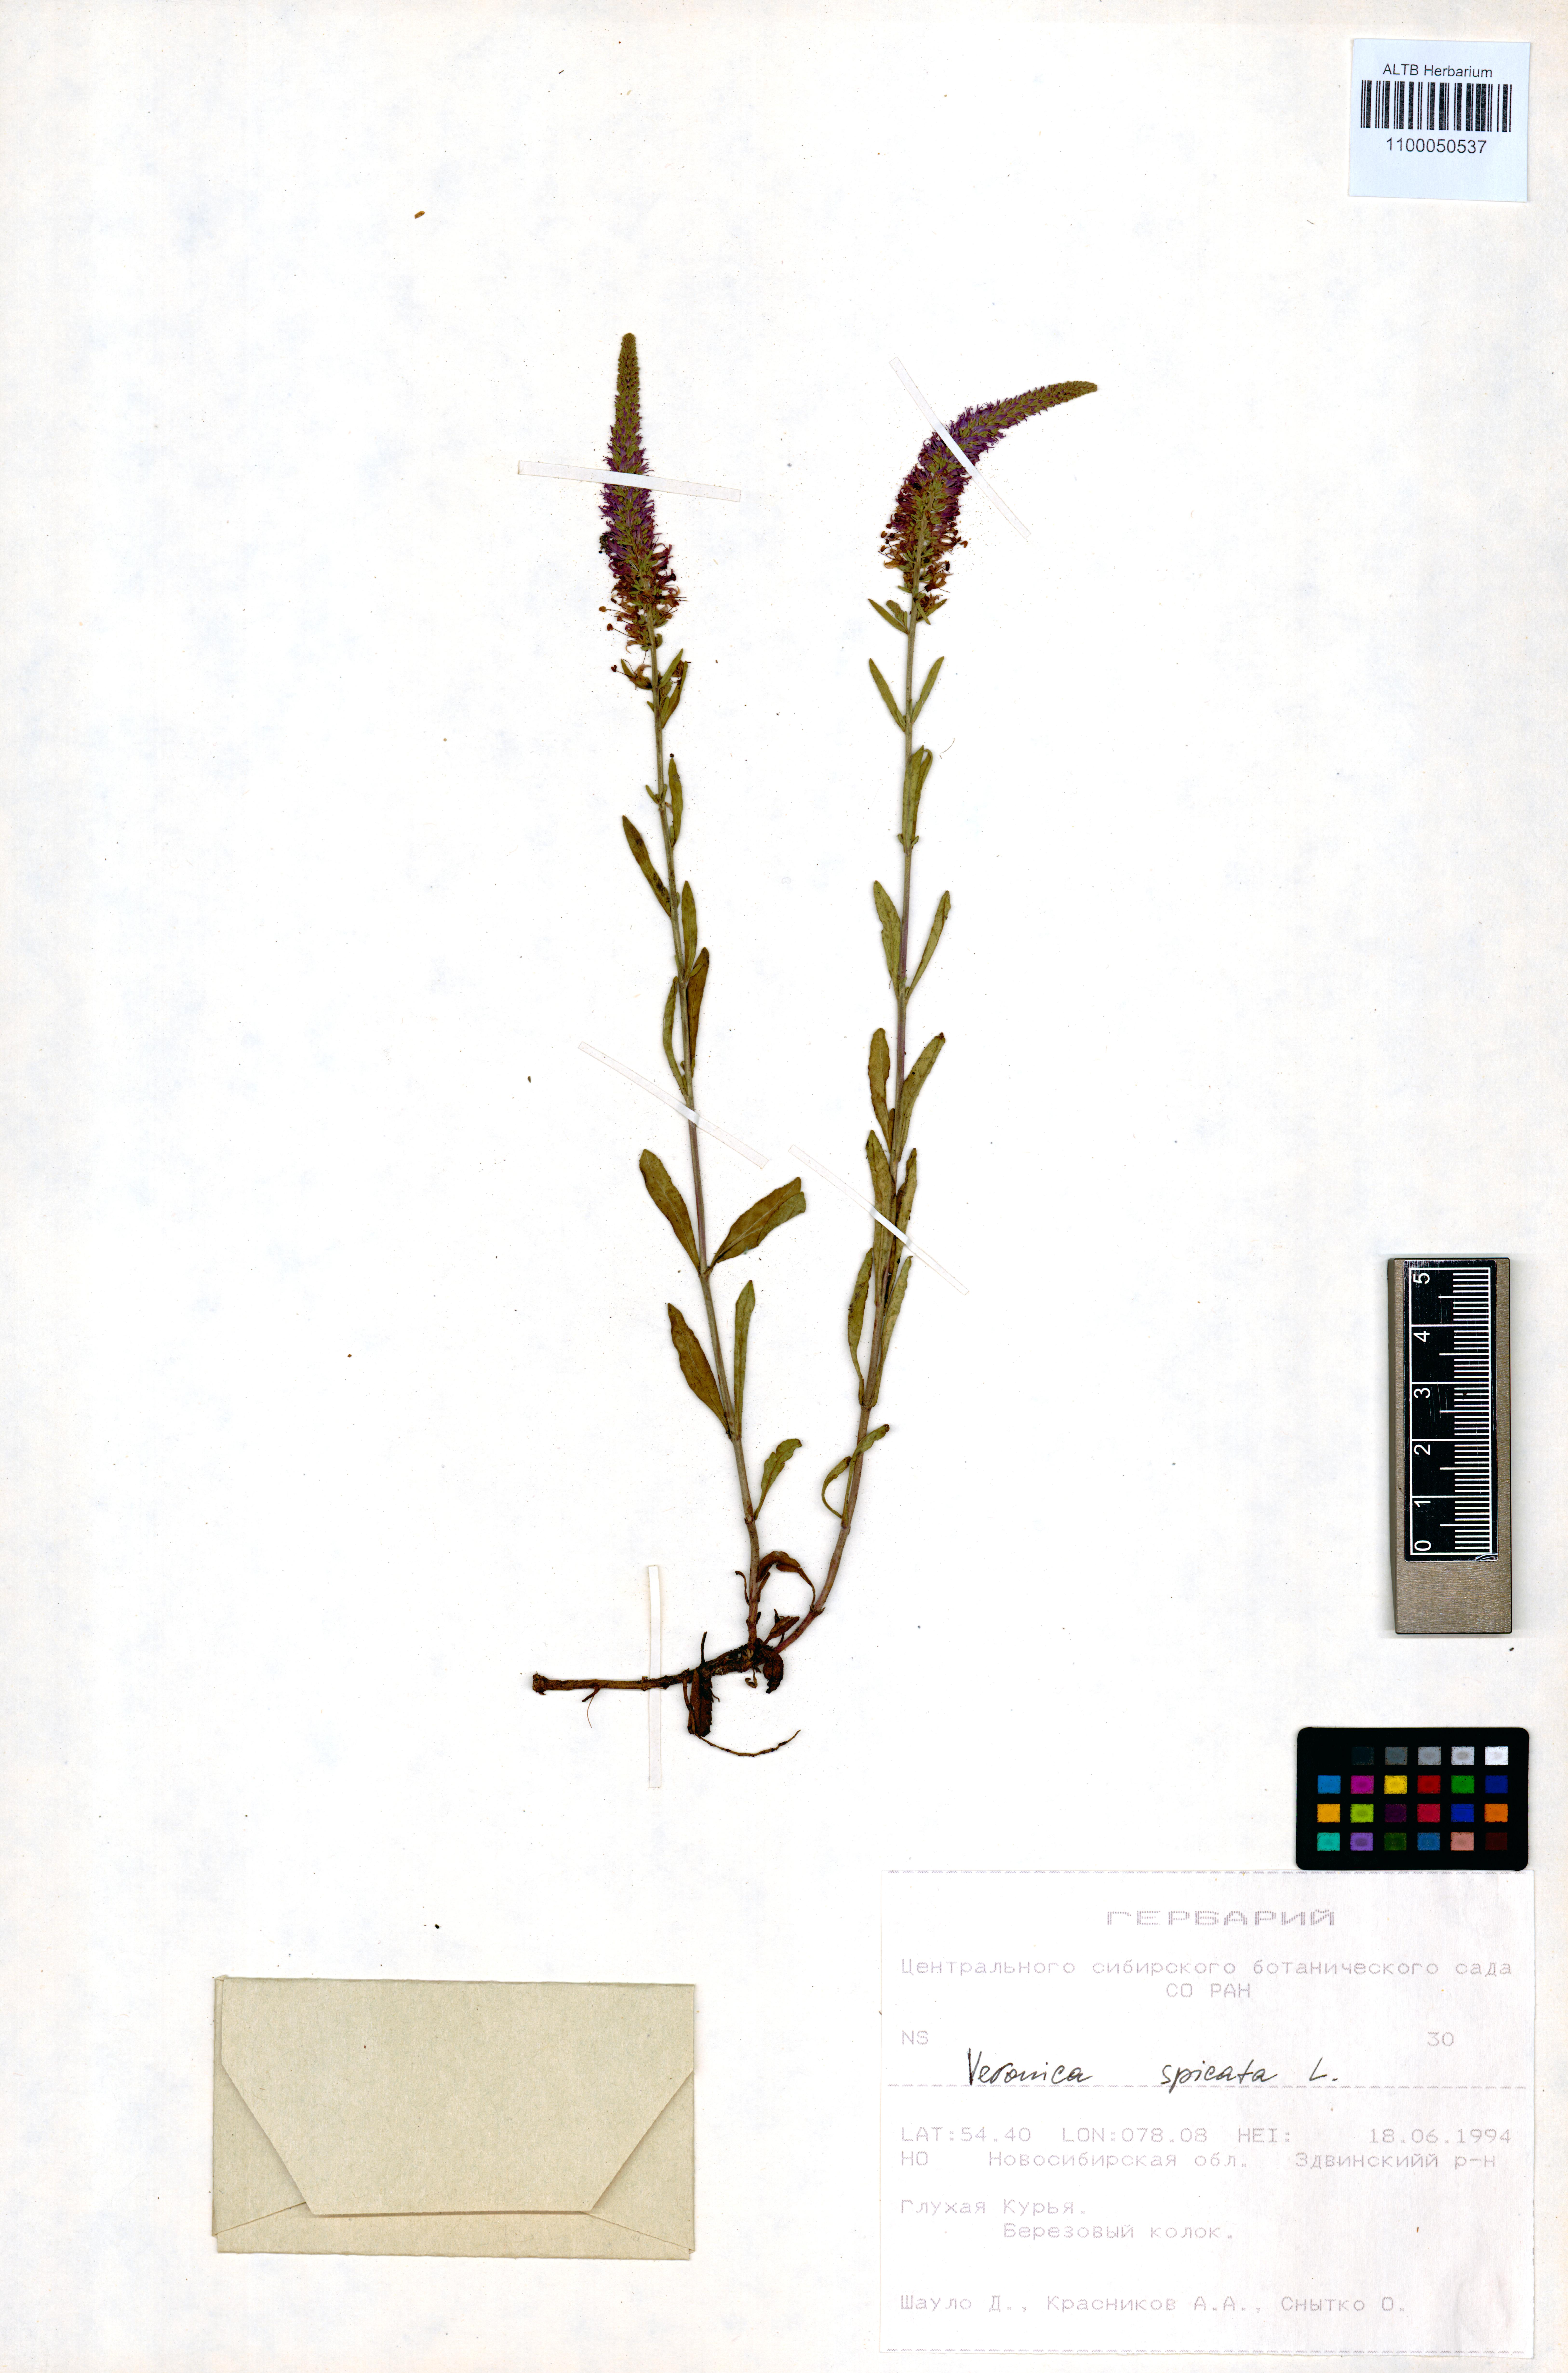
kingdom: Plantae
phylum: Tracheophyta
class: Magnoliopsida
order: Lamiales
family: Plantaginaceae
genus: Veronica
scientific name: Veronica spicata
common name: Spiked speedwell
